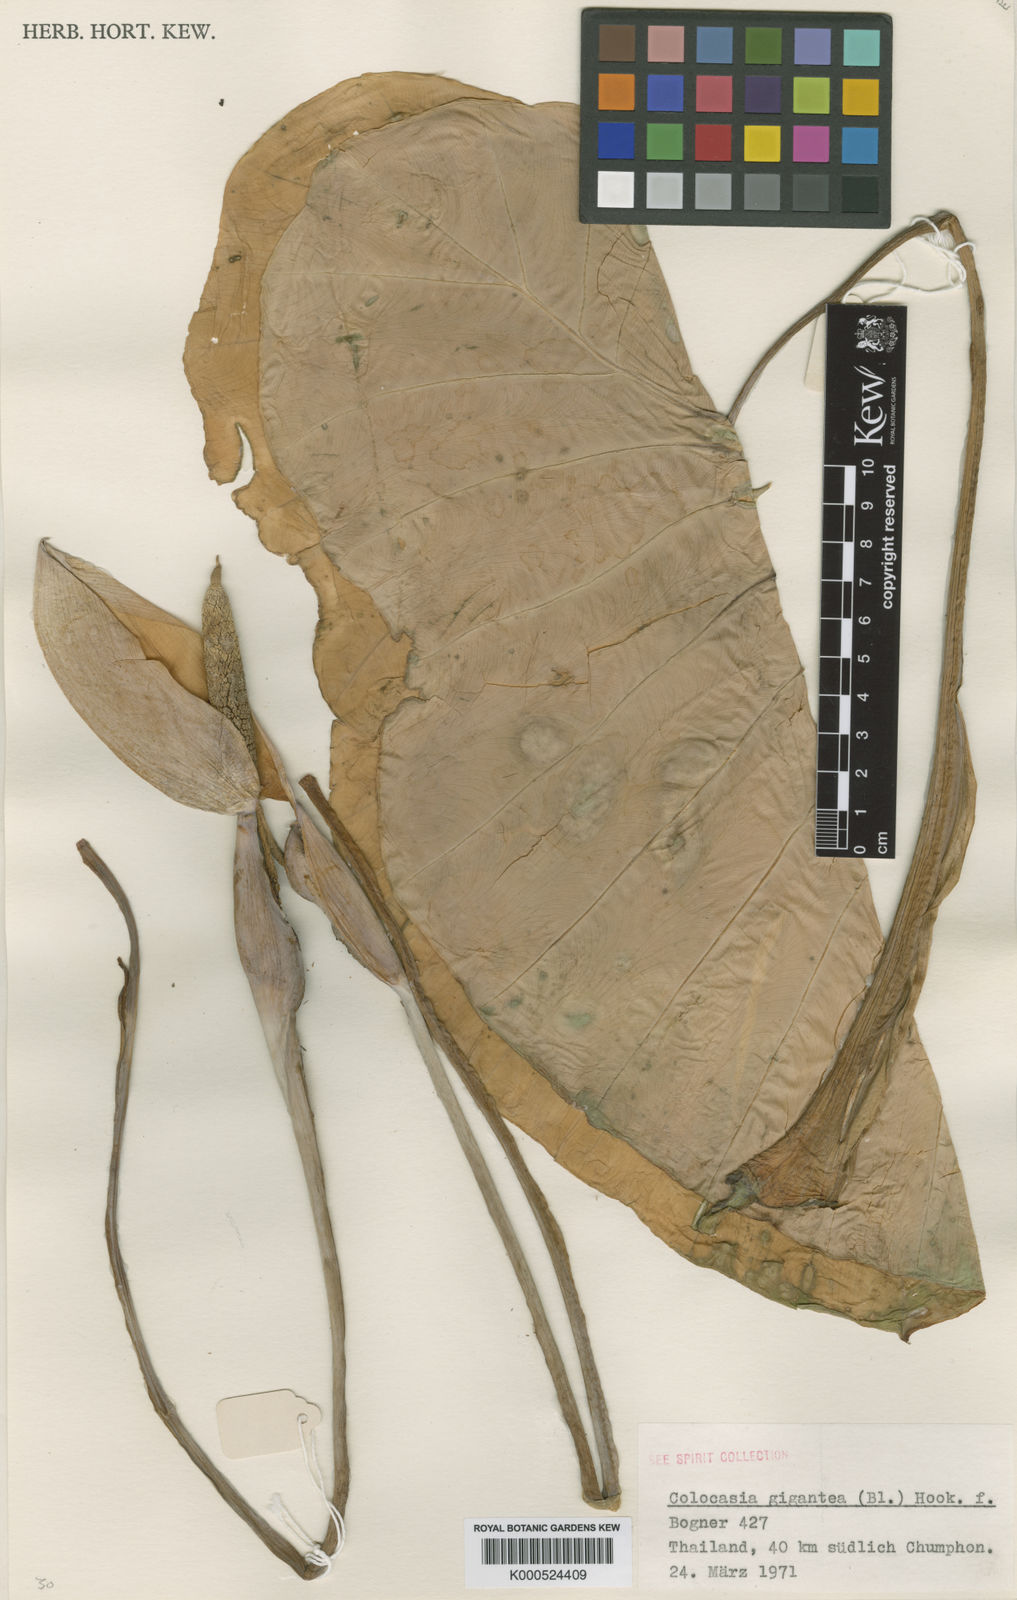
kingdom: Plantae
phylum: Tracheophyta
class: Liliopsida
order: Alismatales
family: Araceae
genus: Leucocasia
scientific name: Leucocasia gigantea
